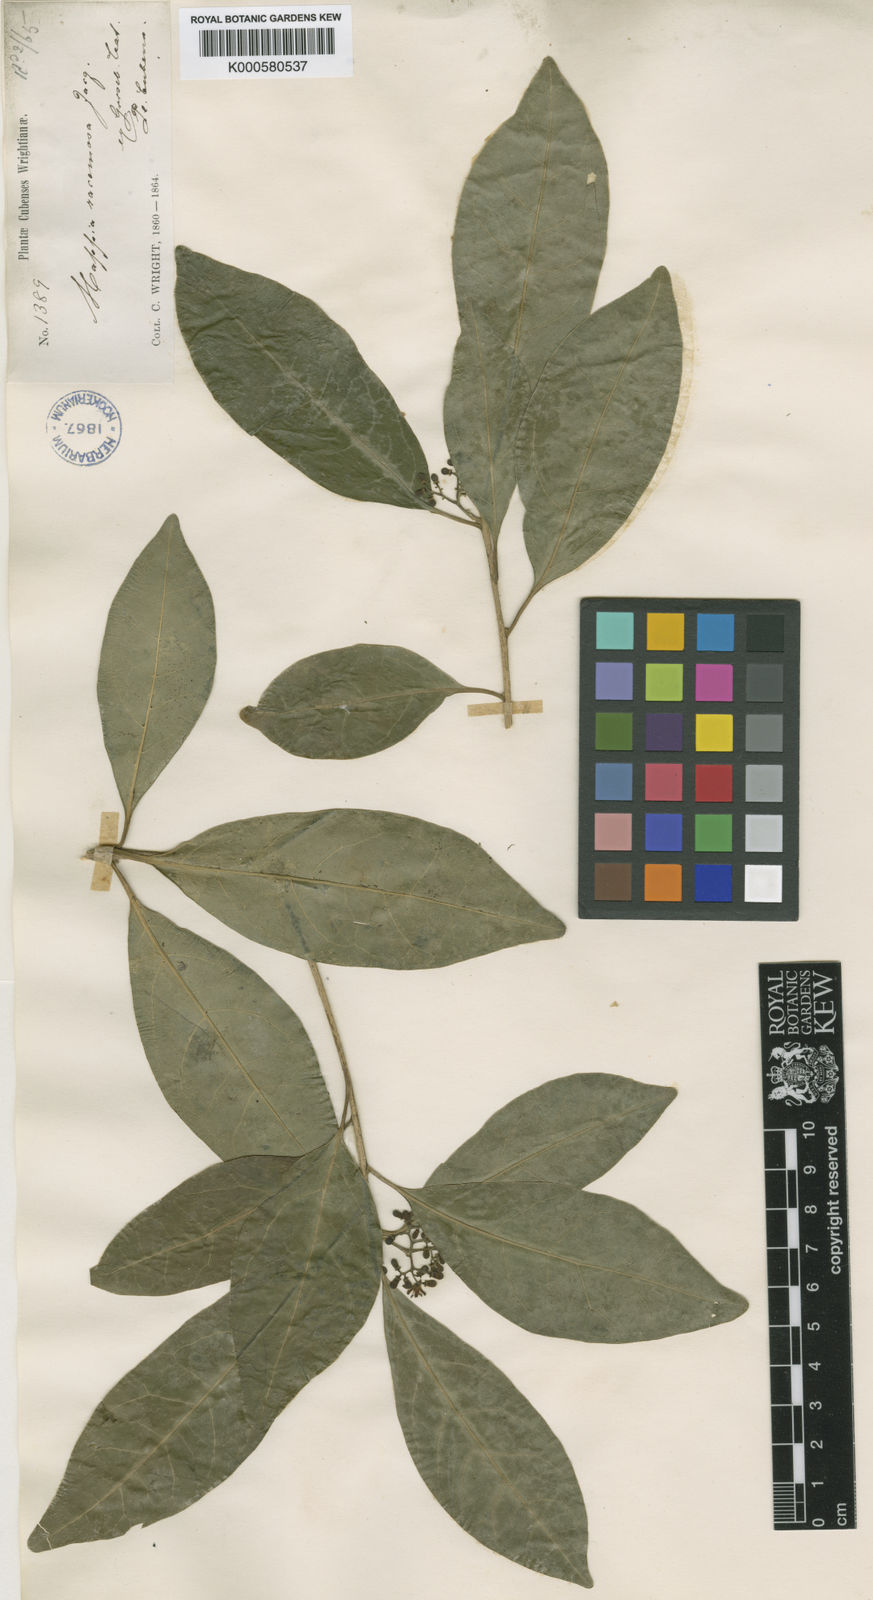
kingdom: Plantae
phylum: Tracheophyta
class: Magnoliopsida
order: Icacinales
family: Icacinaceae
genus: Mappia
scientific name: Mappia racemosa
